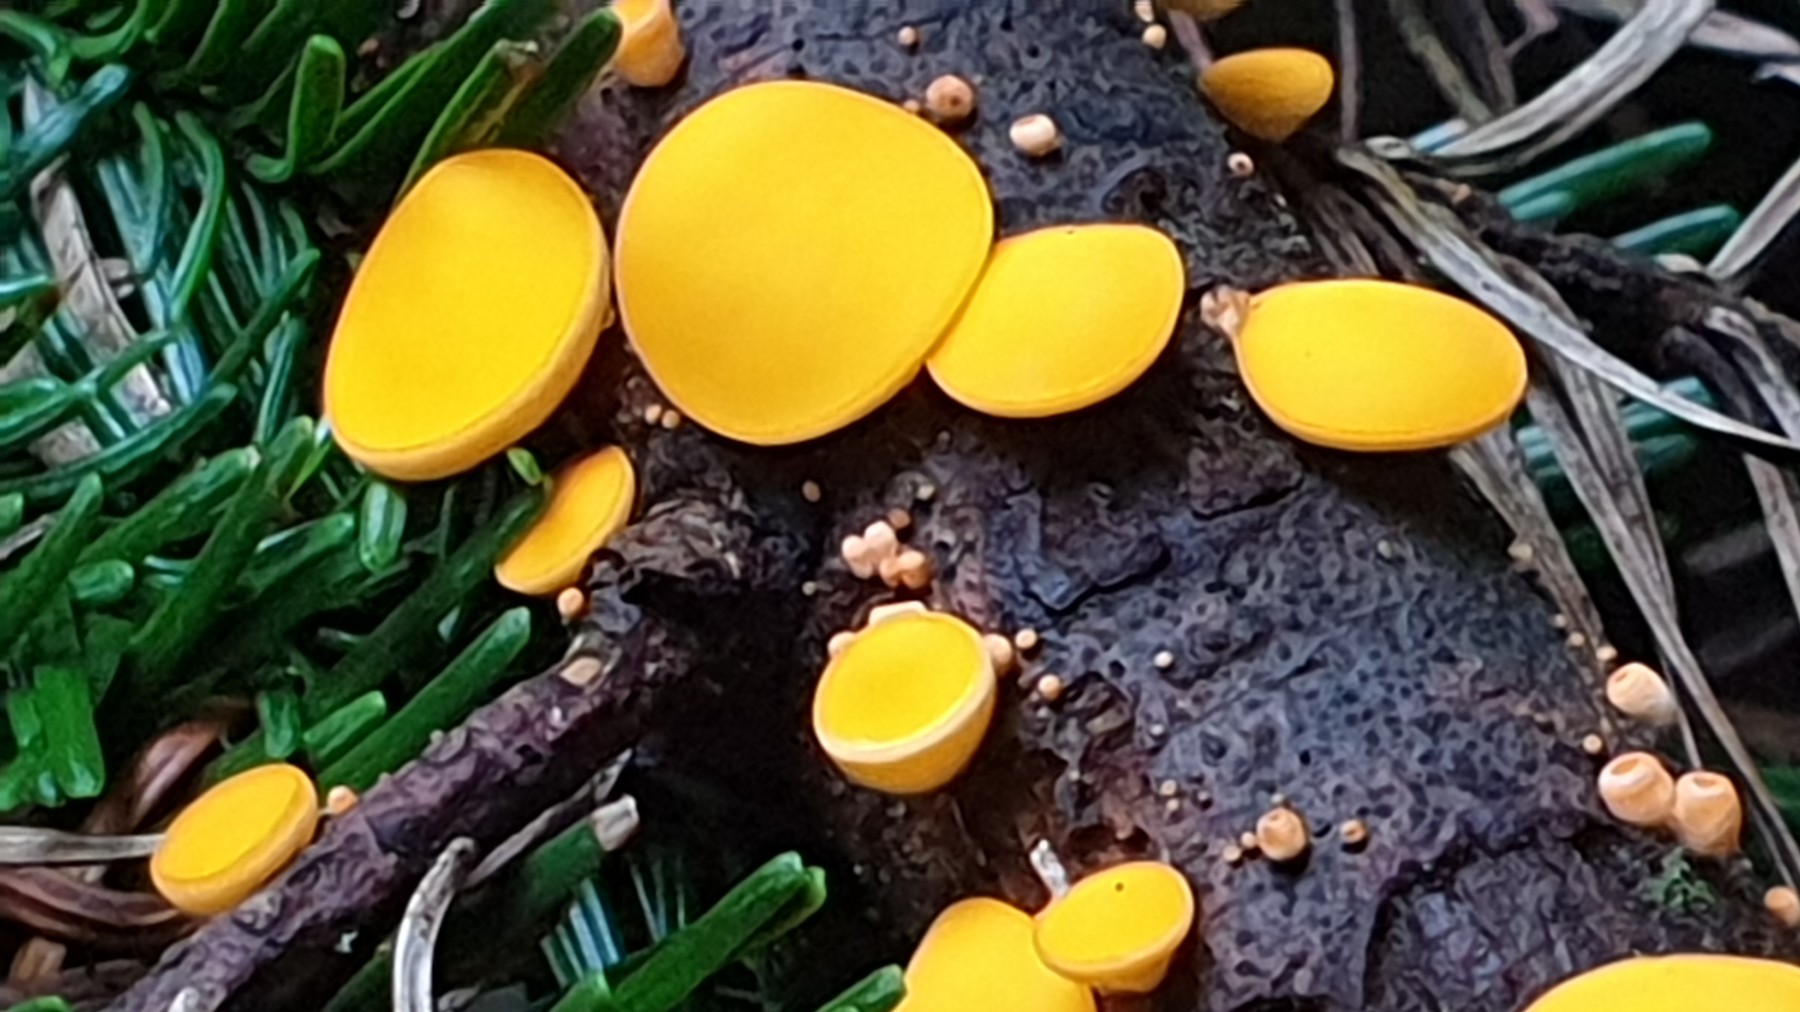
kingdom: Fungi
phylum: Ascomycota
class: Pezizomycetes
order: Pezizales
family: Sarcoscyphaceae
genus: Pithya
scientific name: Pithya vulgaris
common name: stor dukatbæger
